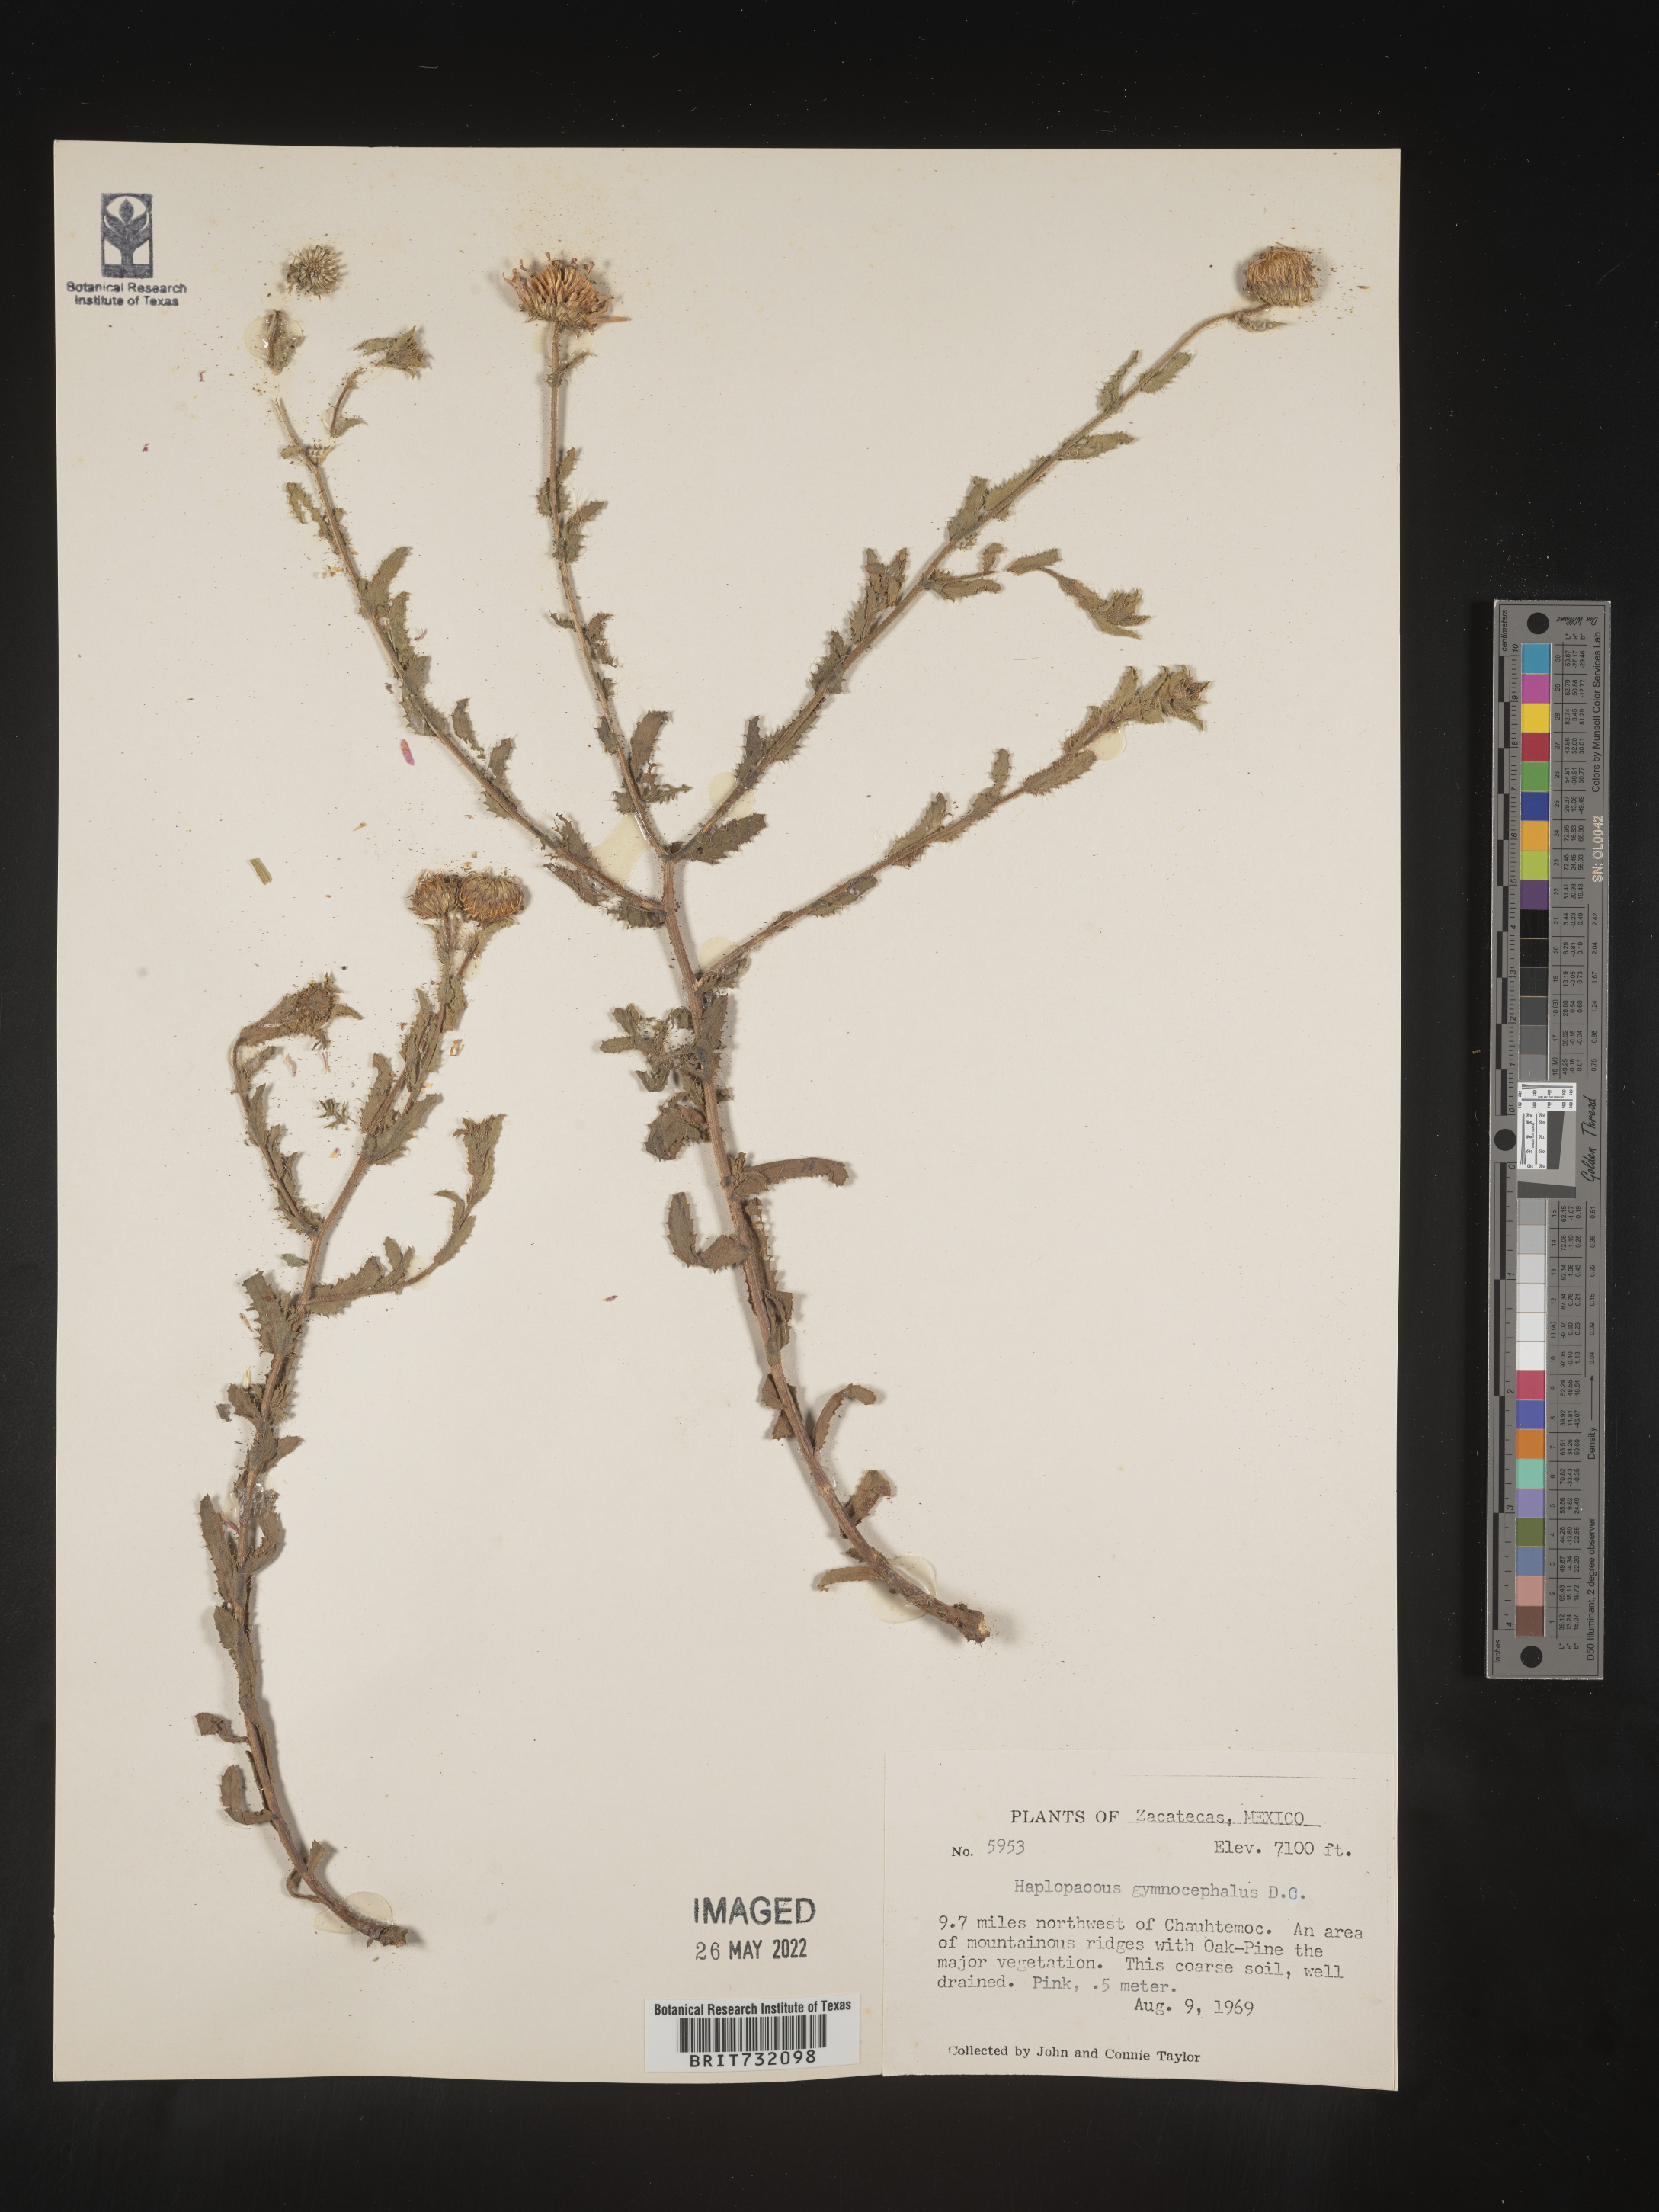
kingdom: Plantae
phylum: Tracheophyta
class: Magnoliopsida
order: Asterales
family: Asteraceae
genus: Xanthisma
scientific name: Xanthisma blephariphyllum
